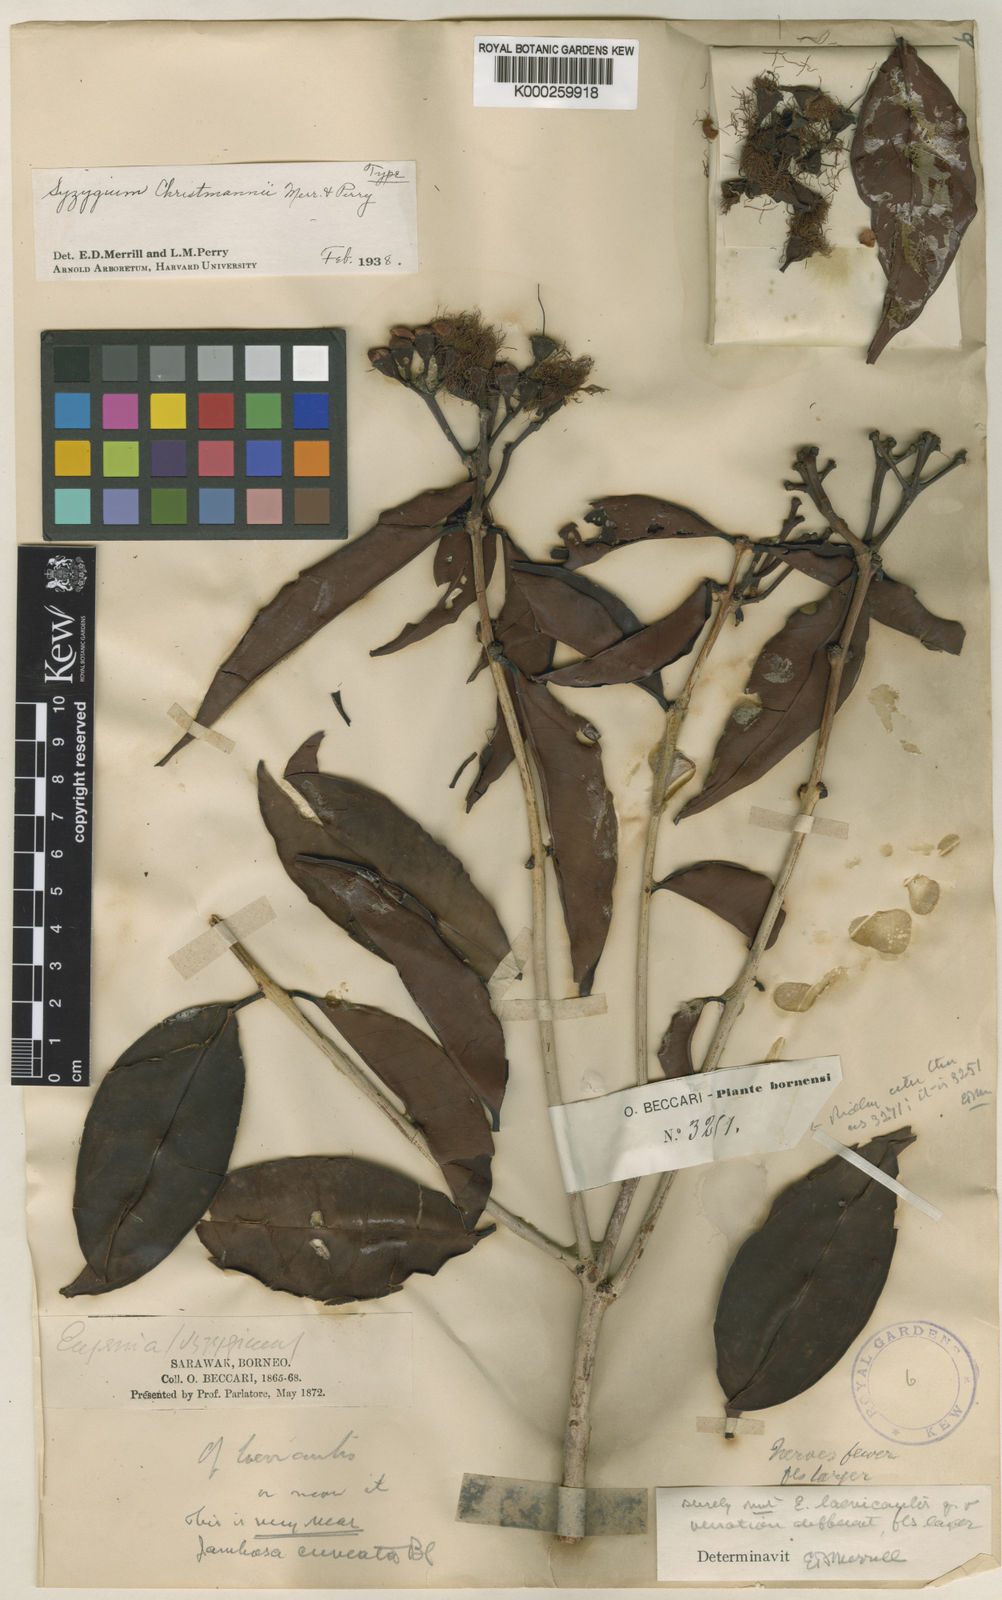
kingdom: Plantae
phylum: Tracheophyta
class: Magnoliopsida
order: Myrtales
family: Myrtaceae
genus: Syzygium
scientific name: Syzygium christmannii
